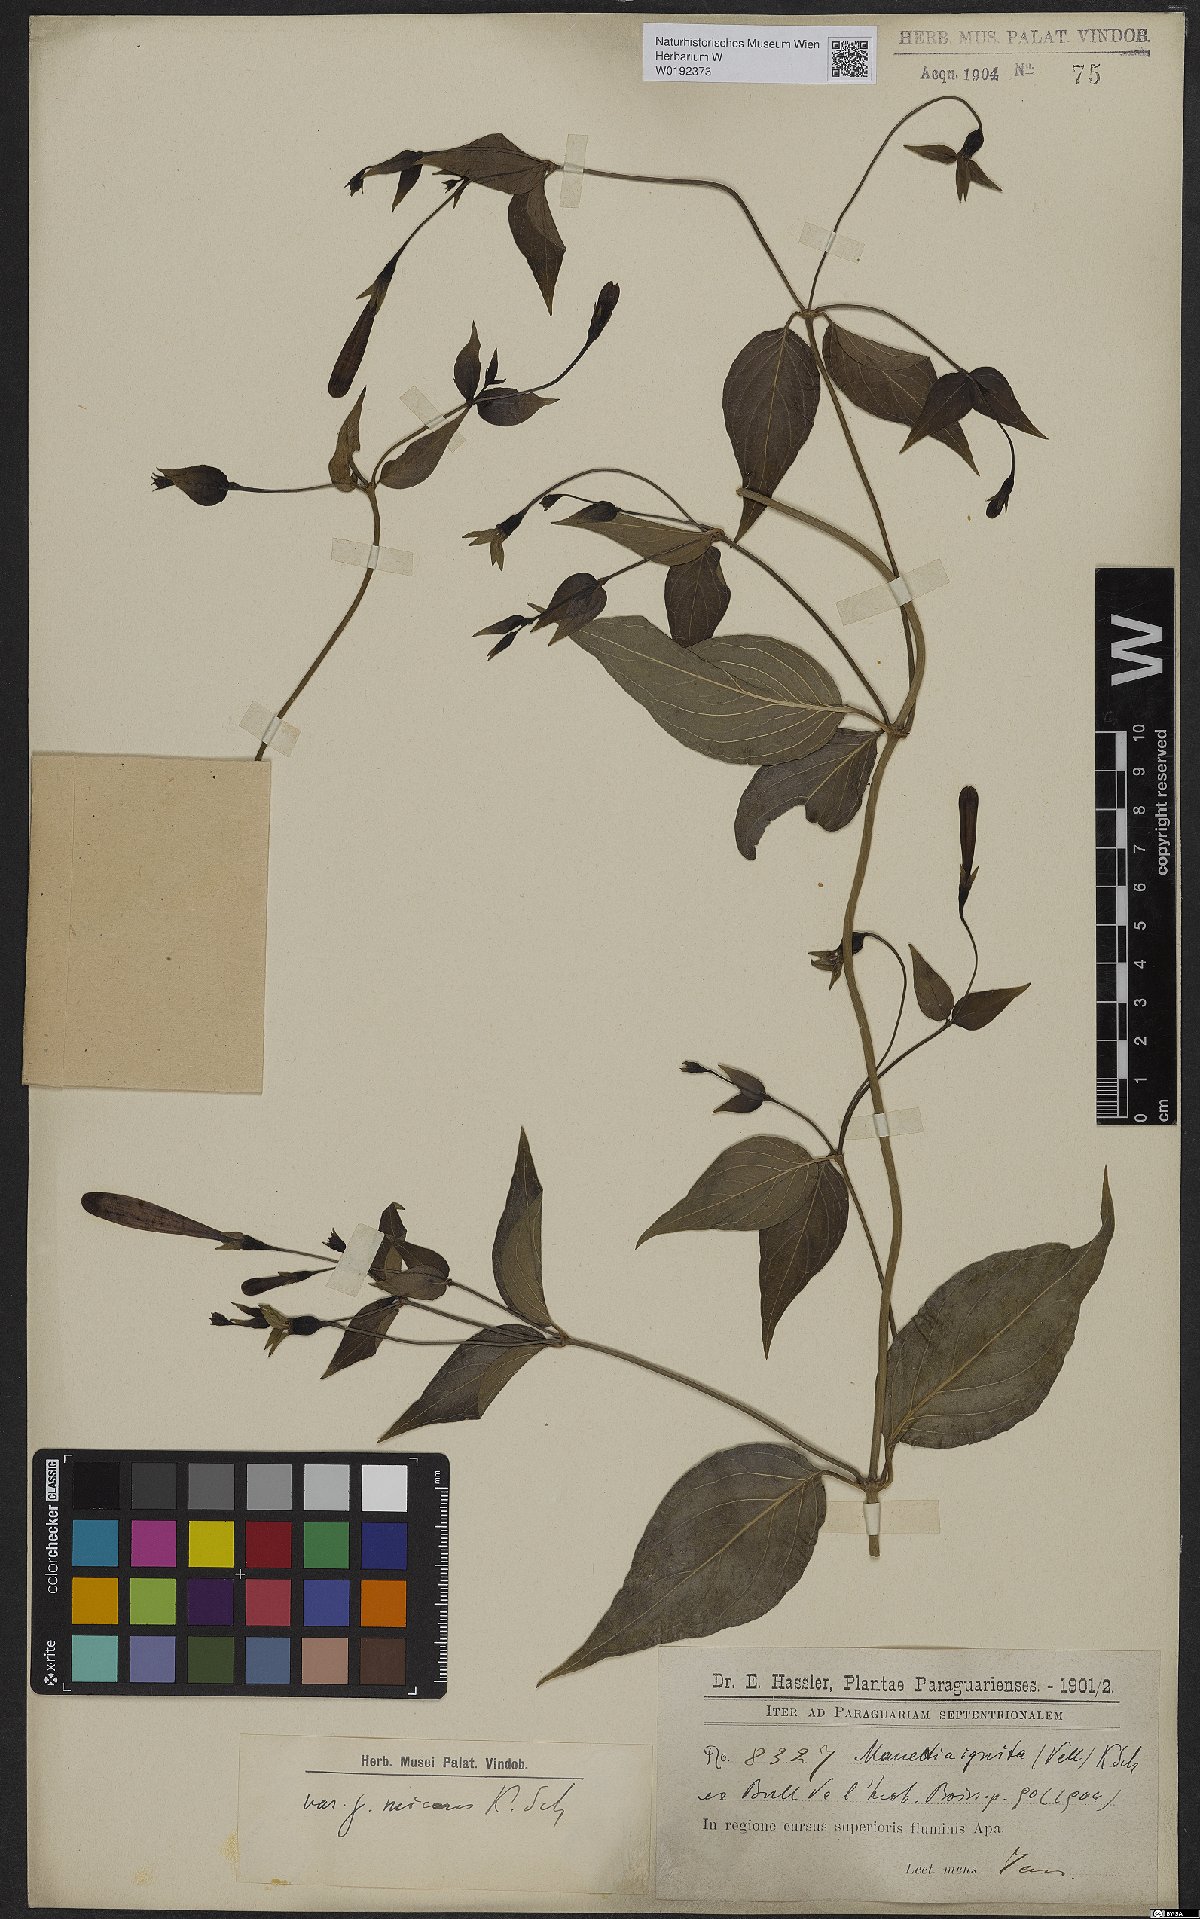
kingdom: Plantae
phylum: Tracheophyta
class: Magnoliopsida
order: Gentianales
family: Rubiaceae
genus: Manettia
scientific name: Manettia cordifolia
